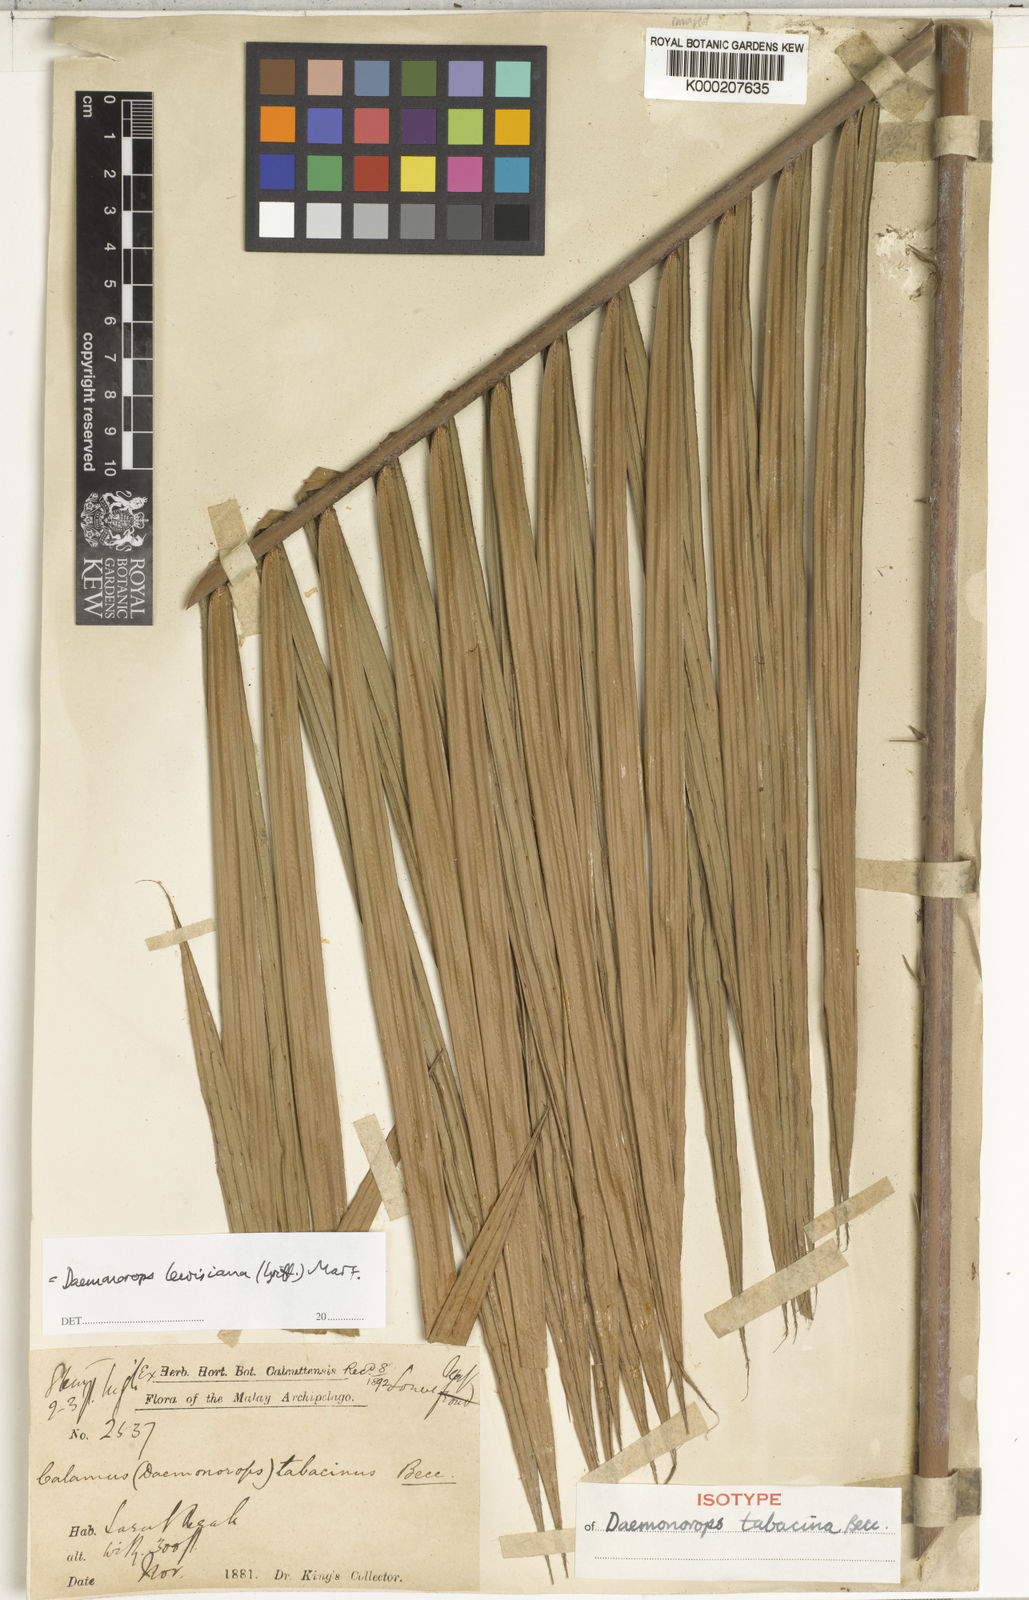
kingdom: Plantae
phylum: Tracheophyta
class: Liliopsida
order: Arecales
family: Arecaceae
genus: Calamus
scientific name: Calamus melanochaetes
